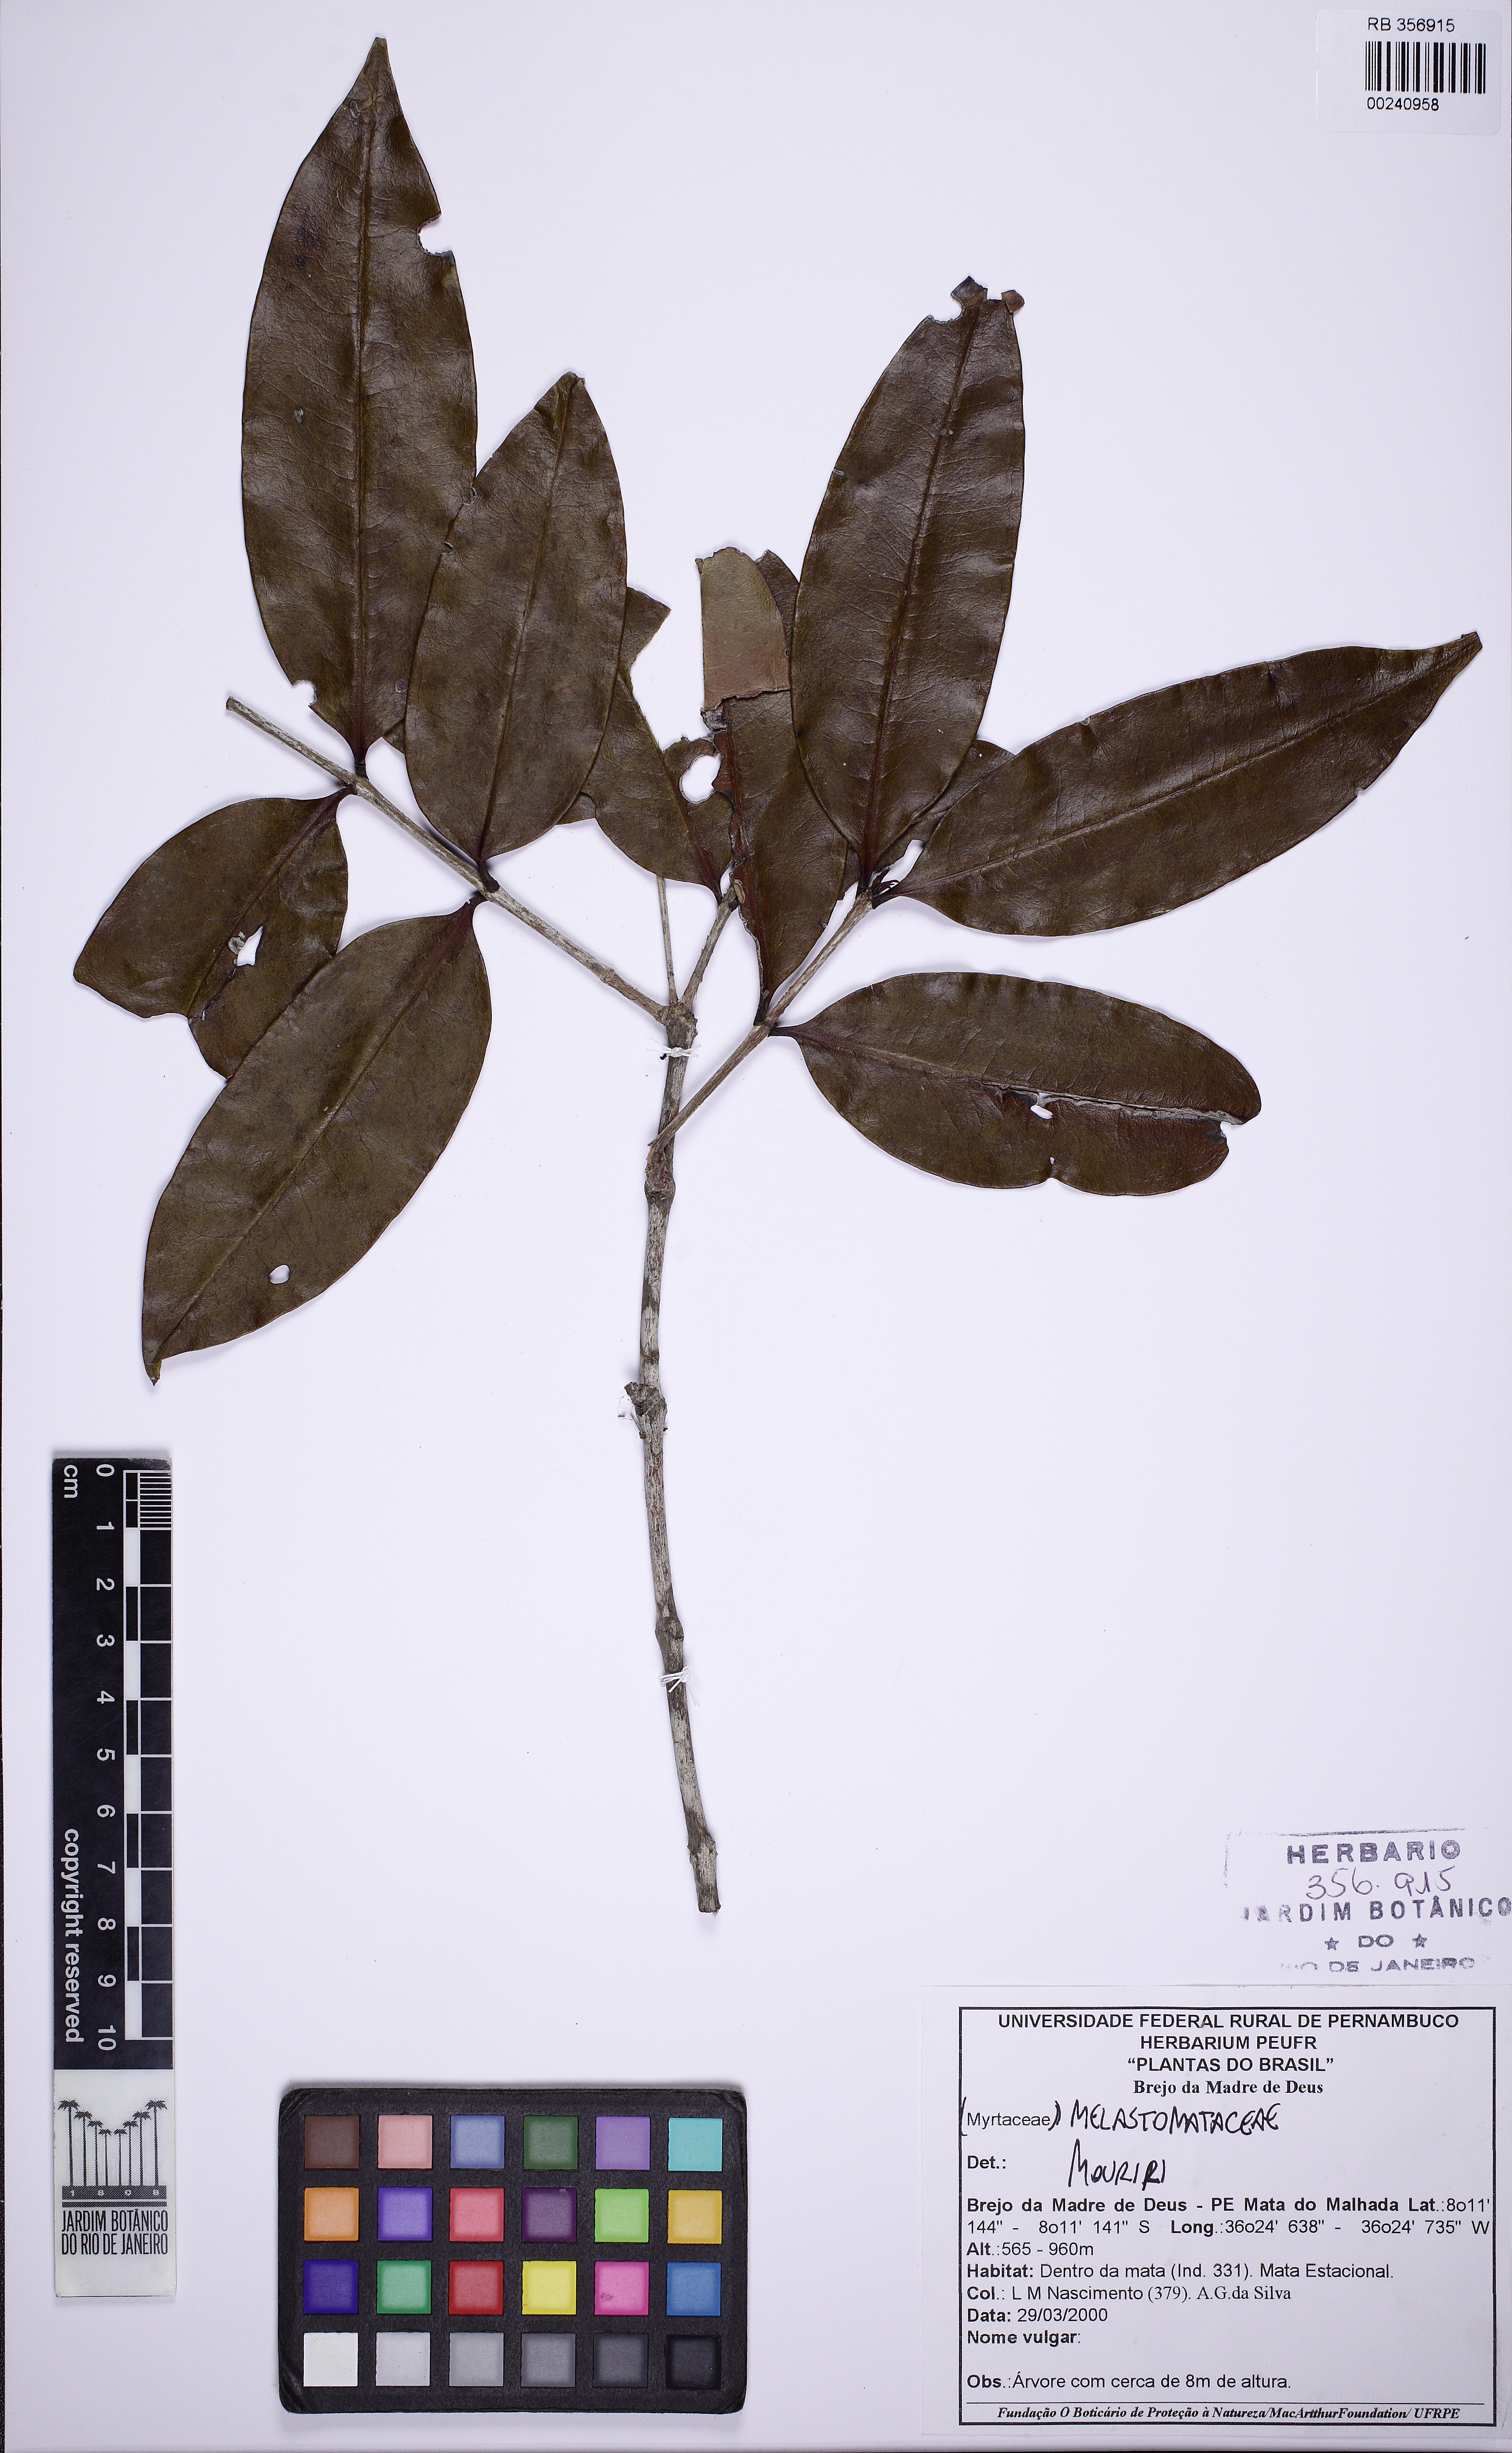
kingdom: Plantae
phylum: Tracheophyta
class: Magnoliopsida
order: Myrtales
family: Melastomataceae
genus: Mouriri
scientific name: Mouriri glazioviana
